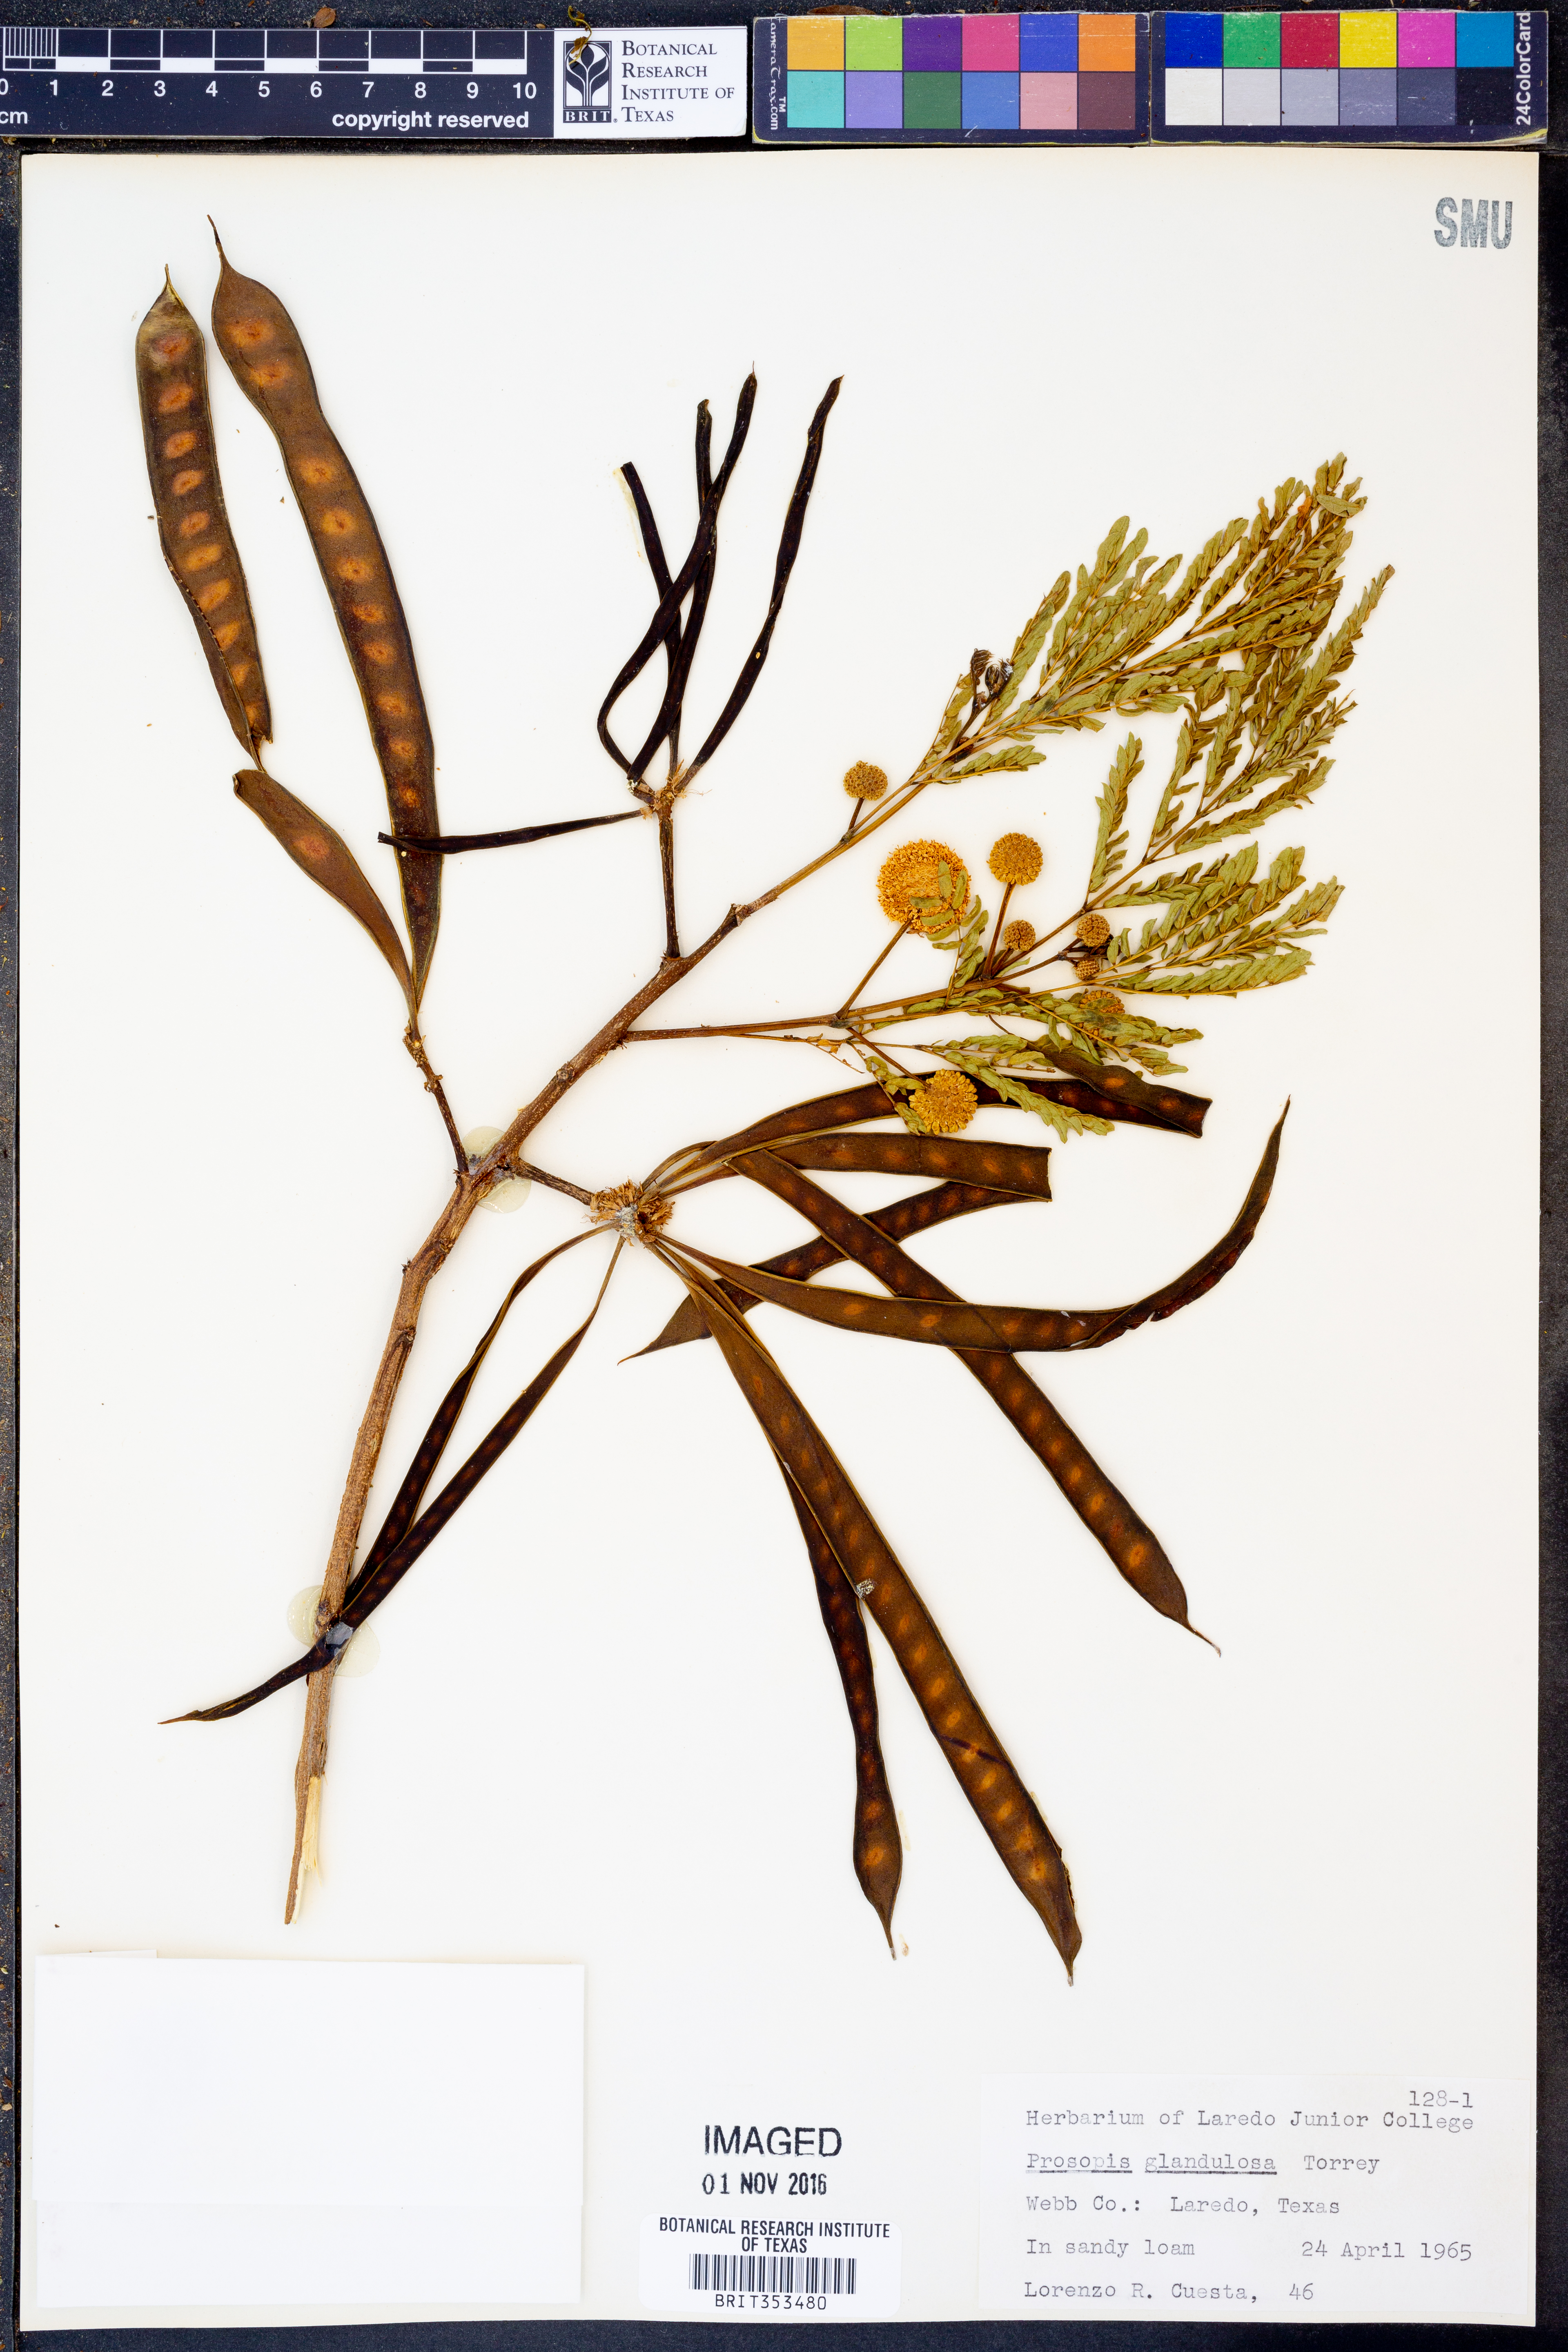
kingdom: Plantae
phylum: Tracheophyta
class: Magnoliopsida
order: Fabales
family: Fabaceae
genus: Prosopis
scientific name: Prosopis glandulosa
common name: Honey mesquite
